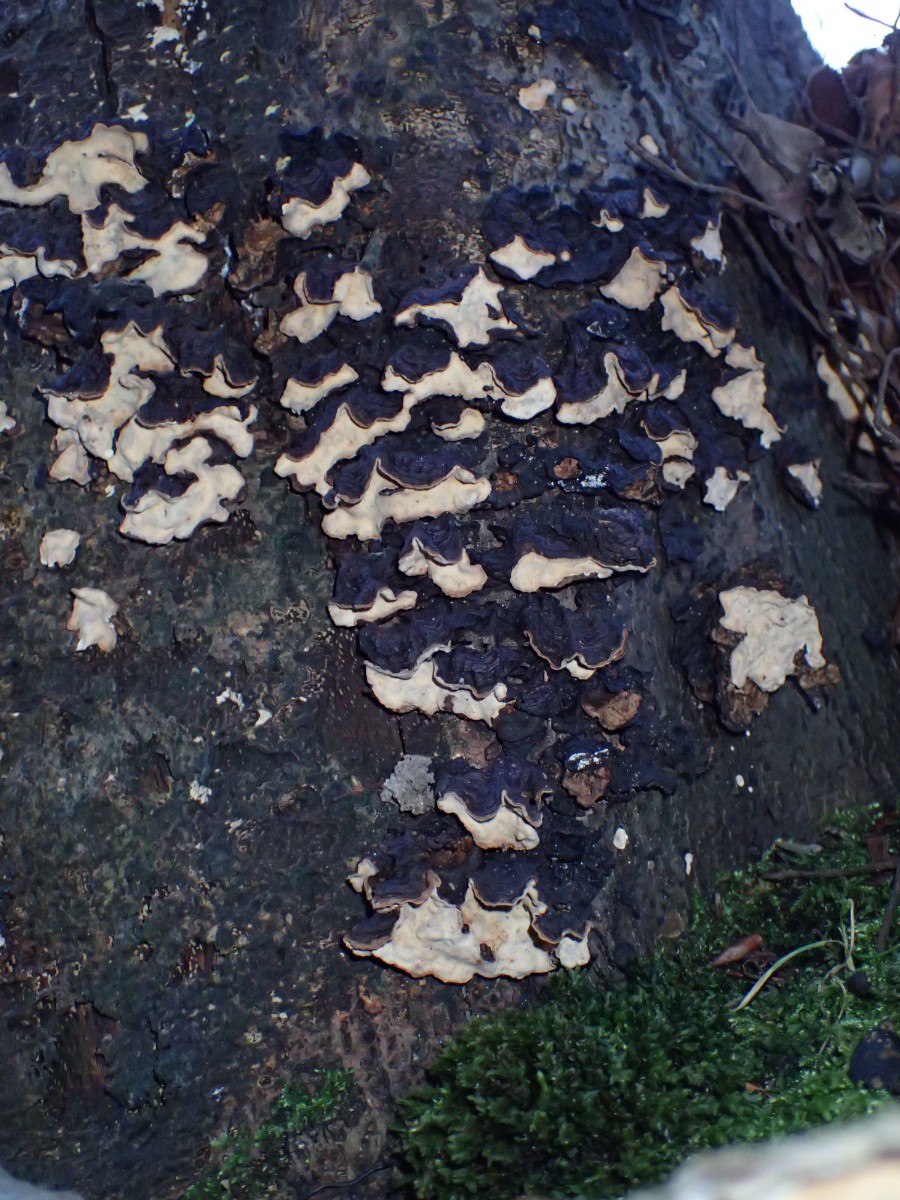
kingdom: Fungi
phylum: Basidiomycota
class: Agaricomycetes
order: Russulales
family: Stereaceae
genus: Stereum
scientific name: Stereum rugosum
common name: rynket lædersvamp
